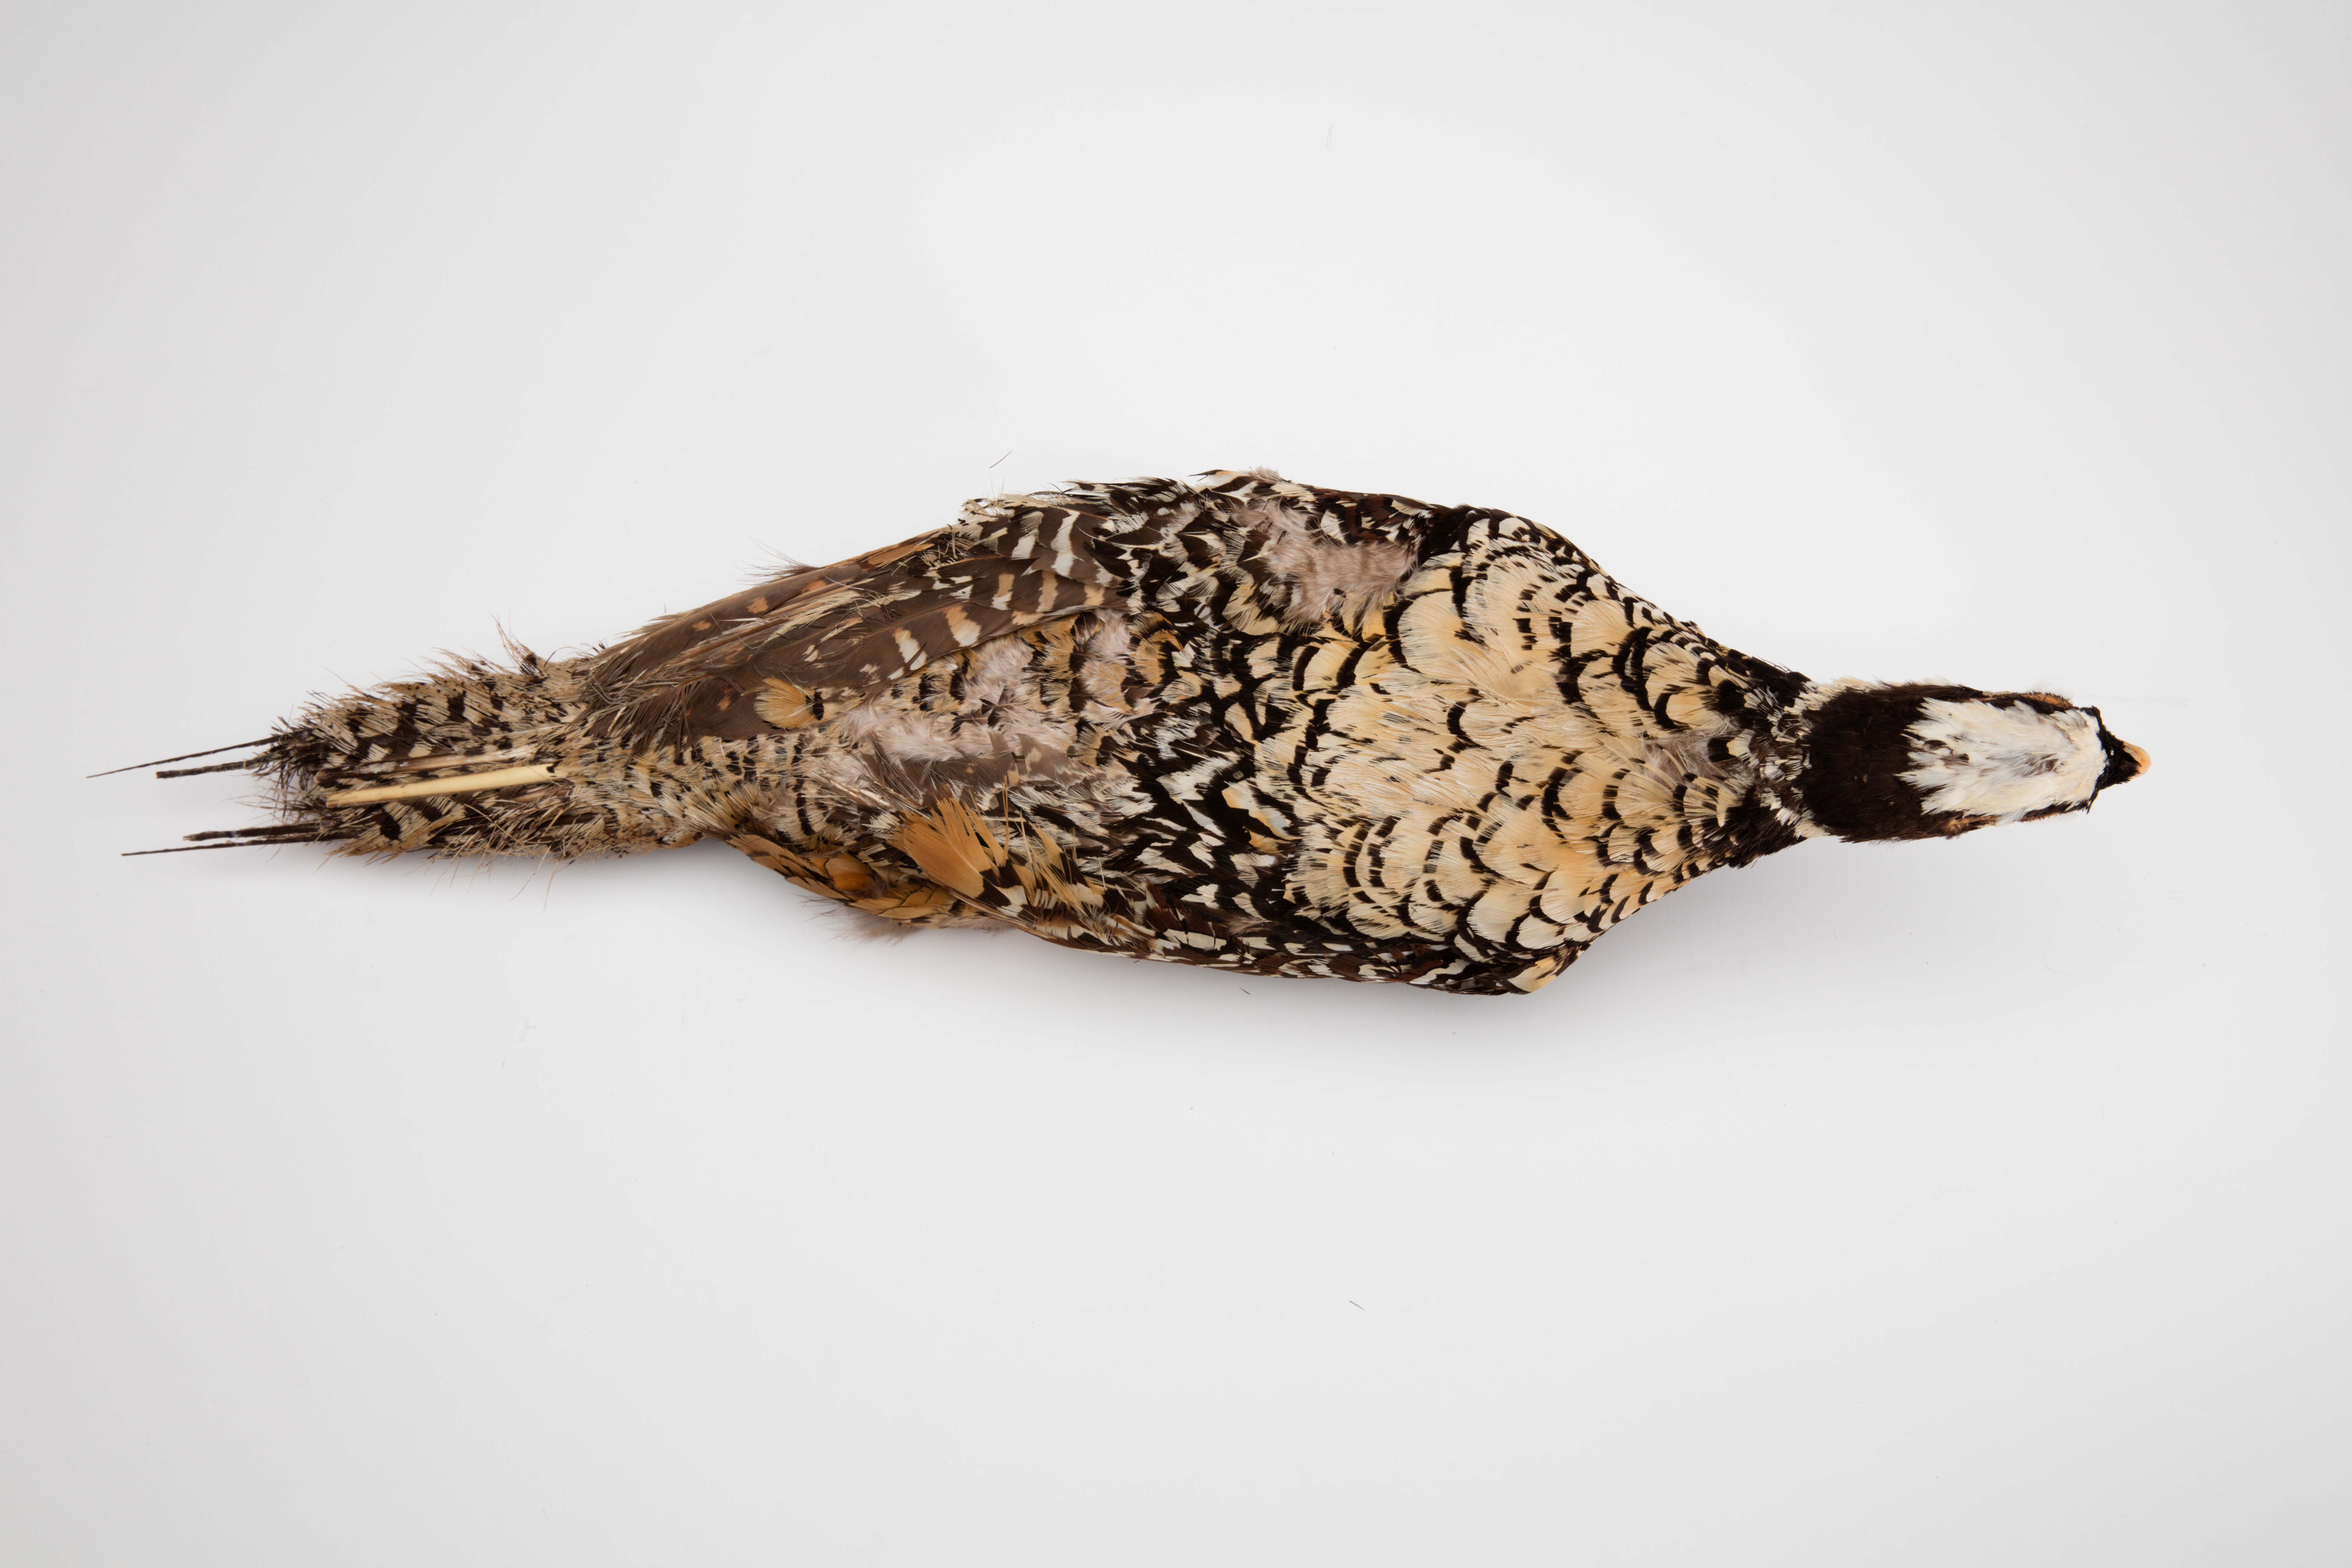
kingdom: Animalia
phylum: Chordata
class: Aves
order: Galliformes
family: Phasianidae
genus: Syrmaticus
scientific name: Syrmaticus reevesii
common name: Reeves's pheasant
